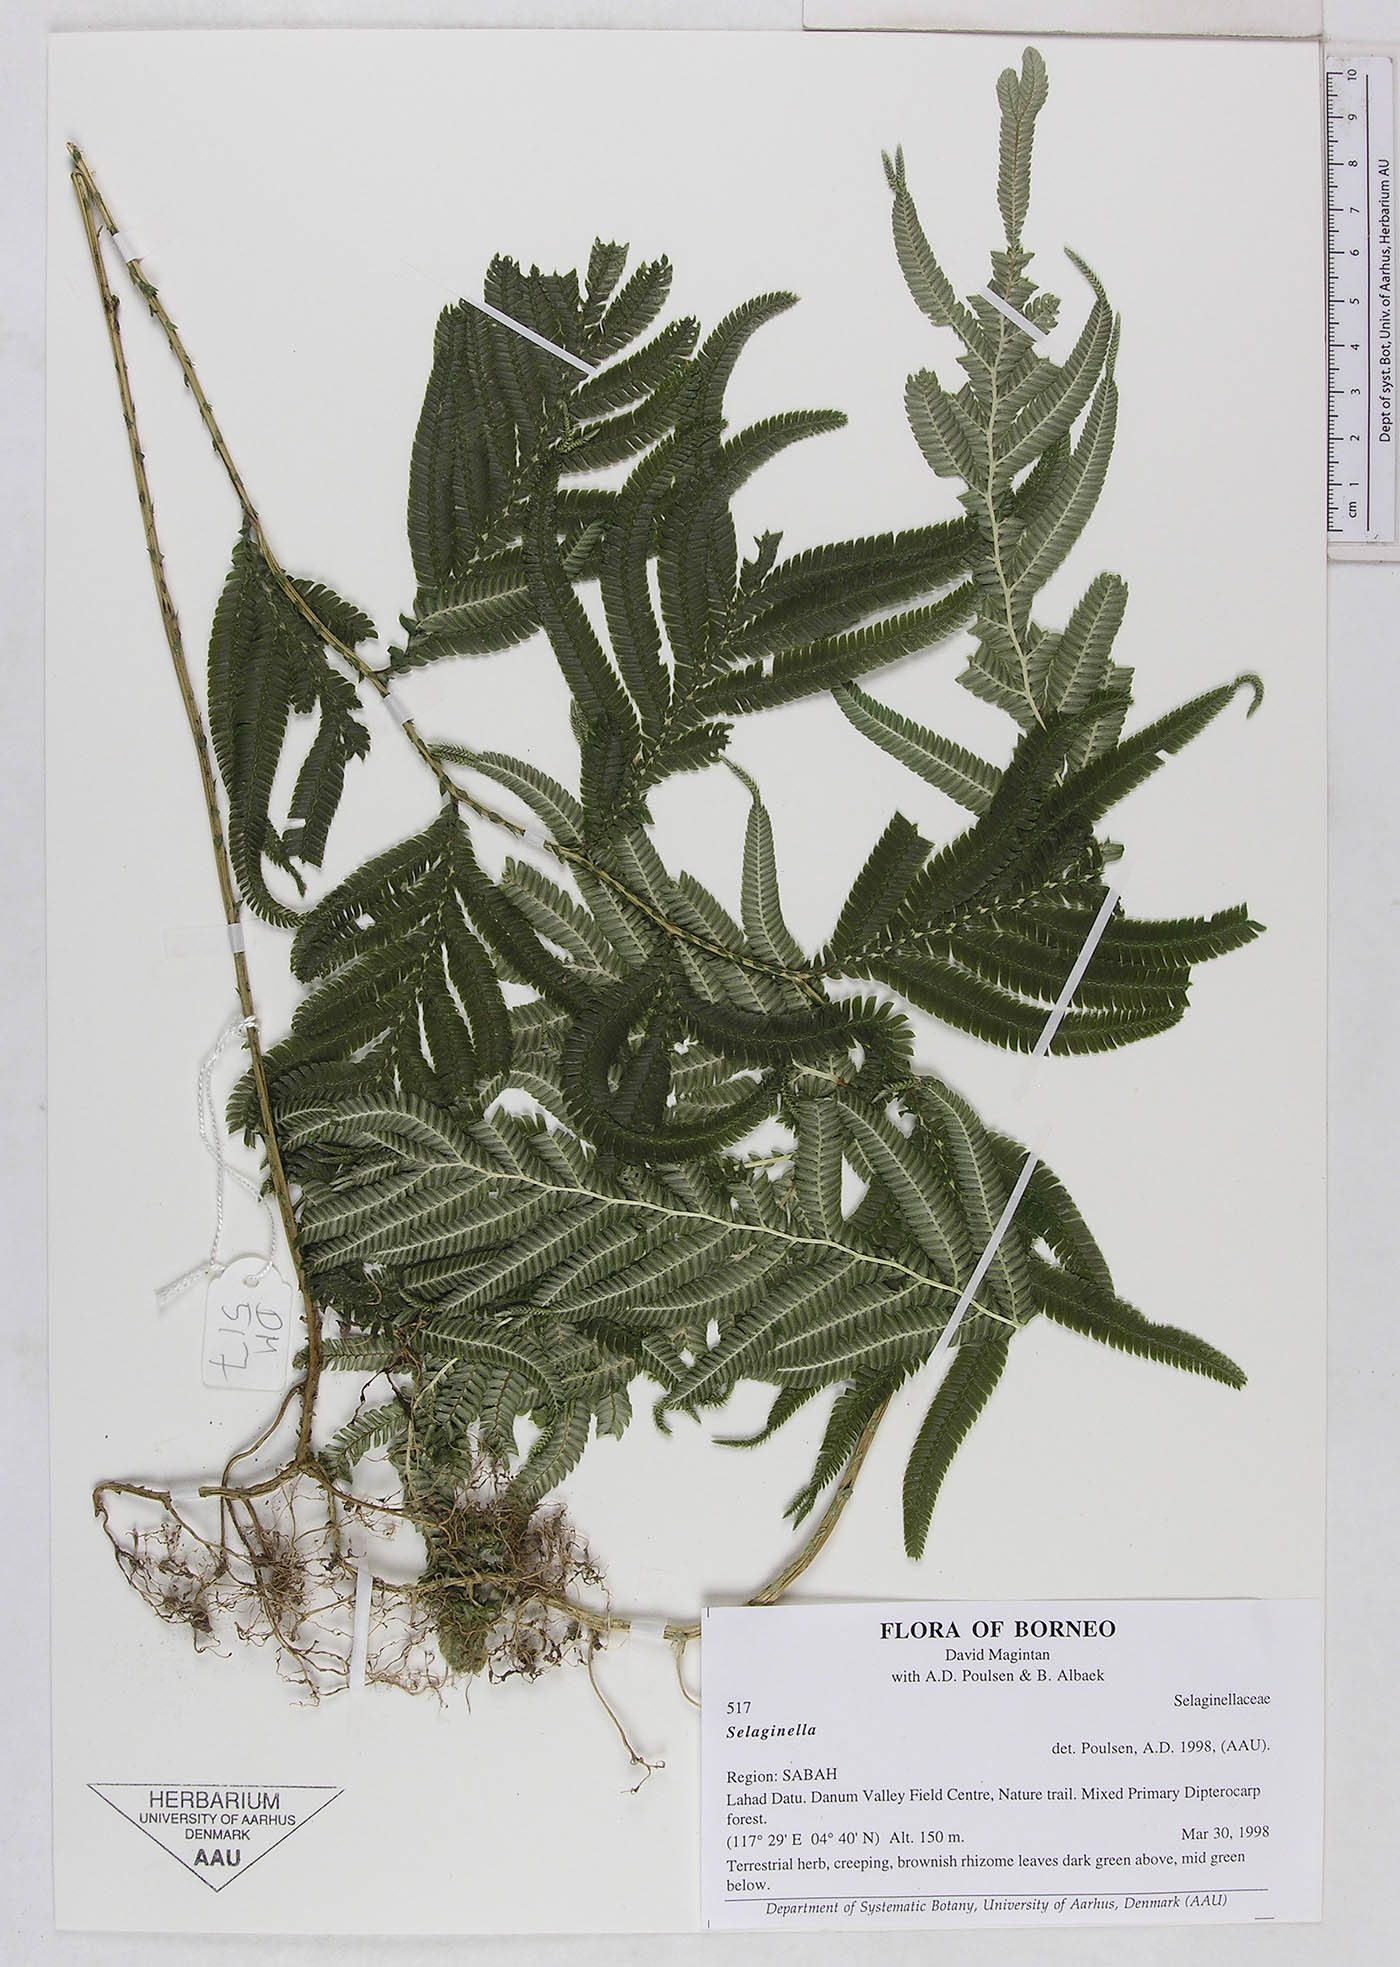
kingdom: Plantae
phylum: Tracheophyta
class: Lycopodiopsida
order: Selaginellales
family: Selaginellaceae
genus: Selaginella
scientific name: Selaginella
